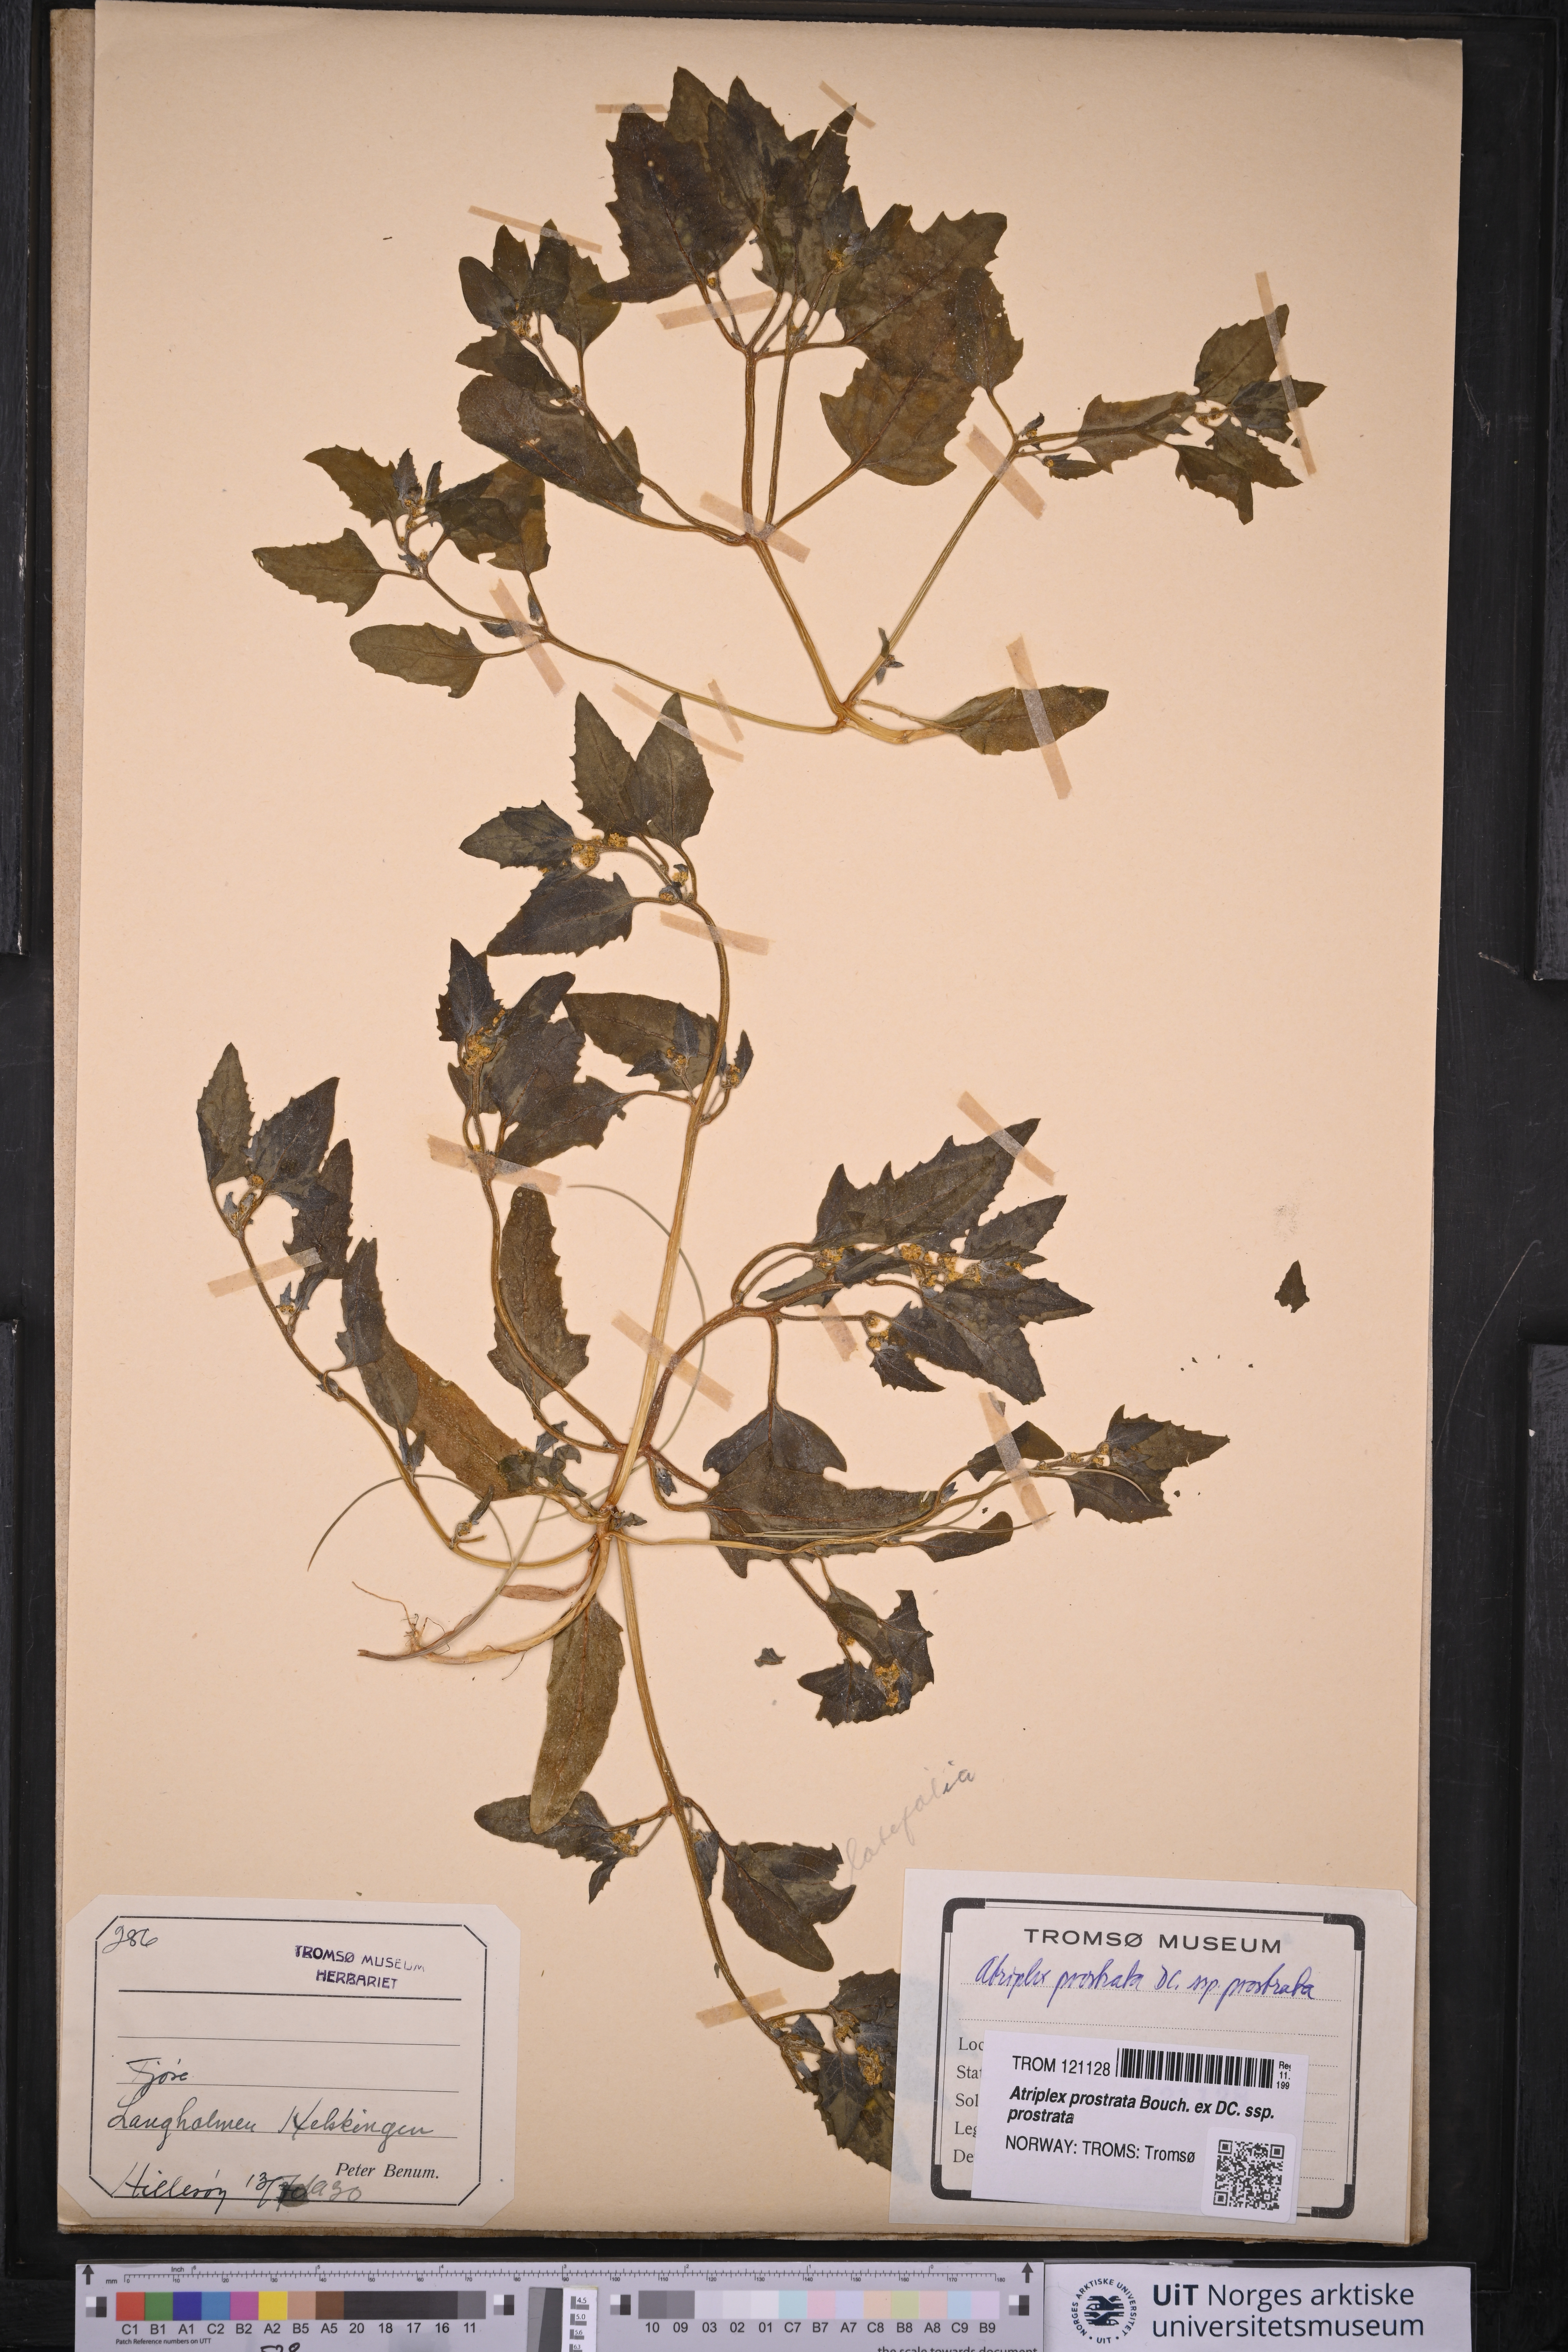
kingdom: Plantae
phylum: Tracheophyta
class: Magnoliopsida
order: Caryophyllales
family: Amaranthaceae
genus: Atriplex
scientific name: Atriplex prostrata
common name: Spear-leaved orache
